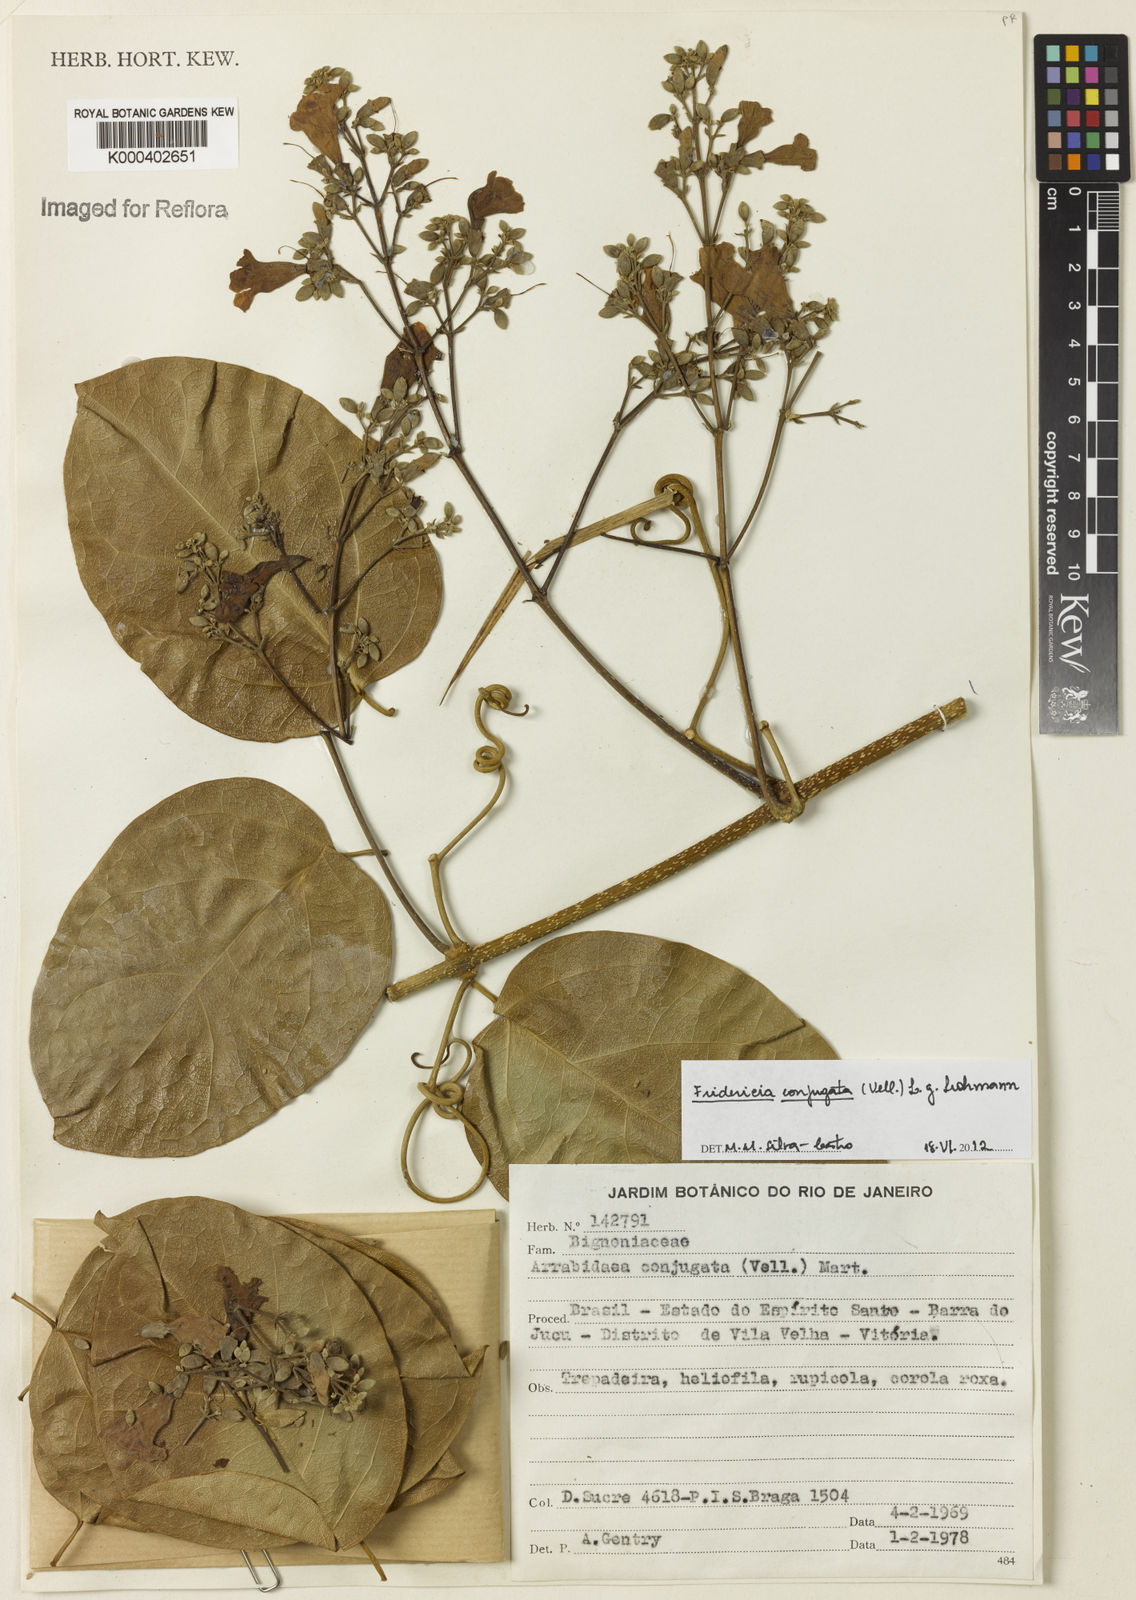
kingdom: Plantae
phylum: Tracheophyta
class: Magnoliopsida
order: Lamiales
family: Bignoniaceae
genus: Fridericia
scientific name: Fridericia conjugata
